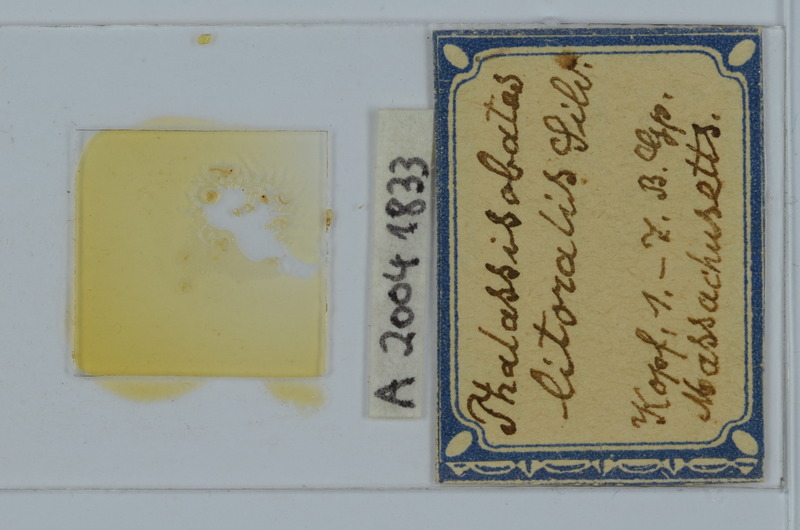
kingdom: Animalia
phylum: Arthropoda
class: Diplopoda
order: Julida
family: Nemasomatidae
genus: Thalassisobates
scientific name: Thalassisobates littoralis
